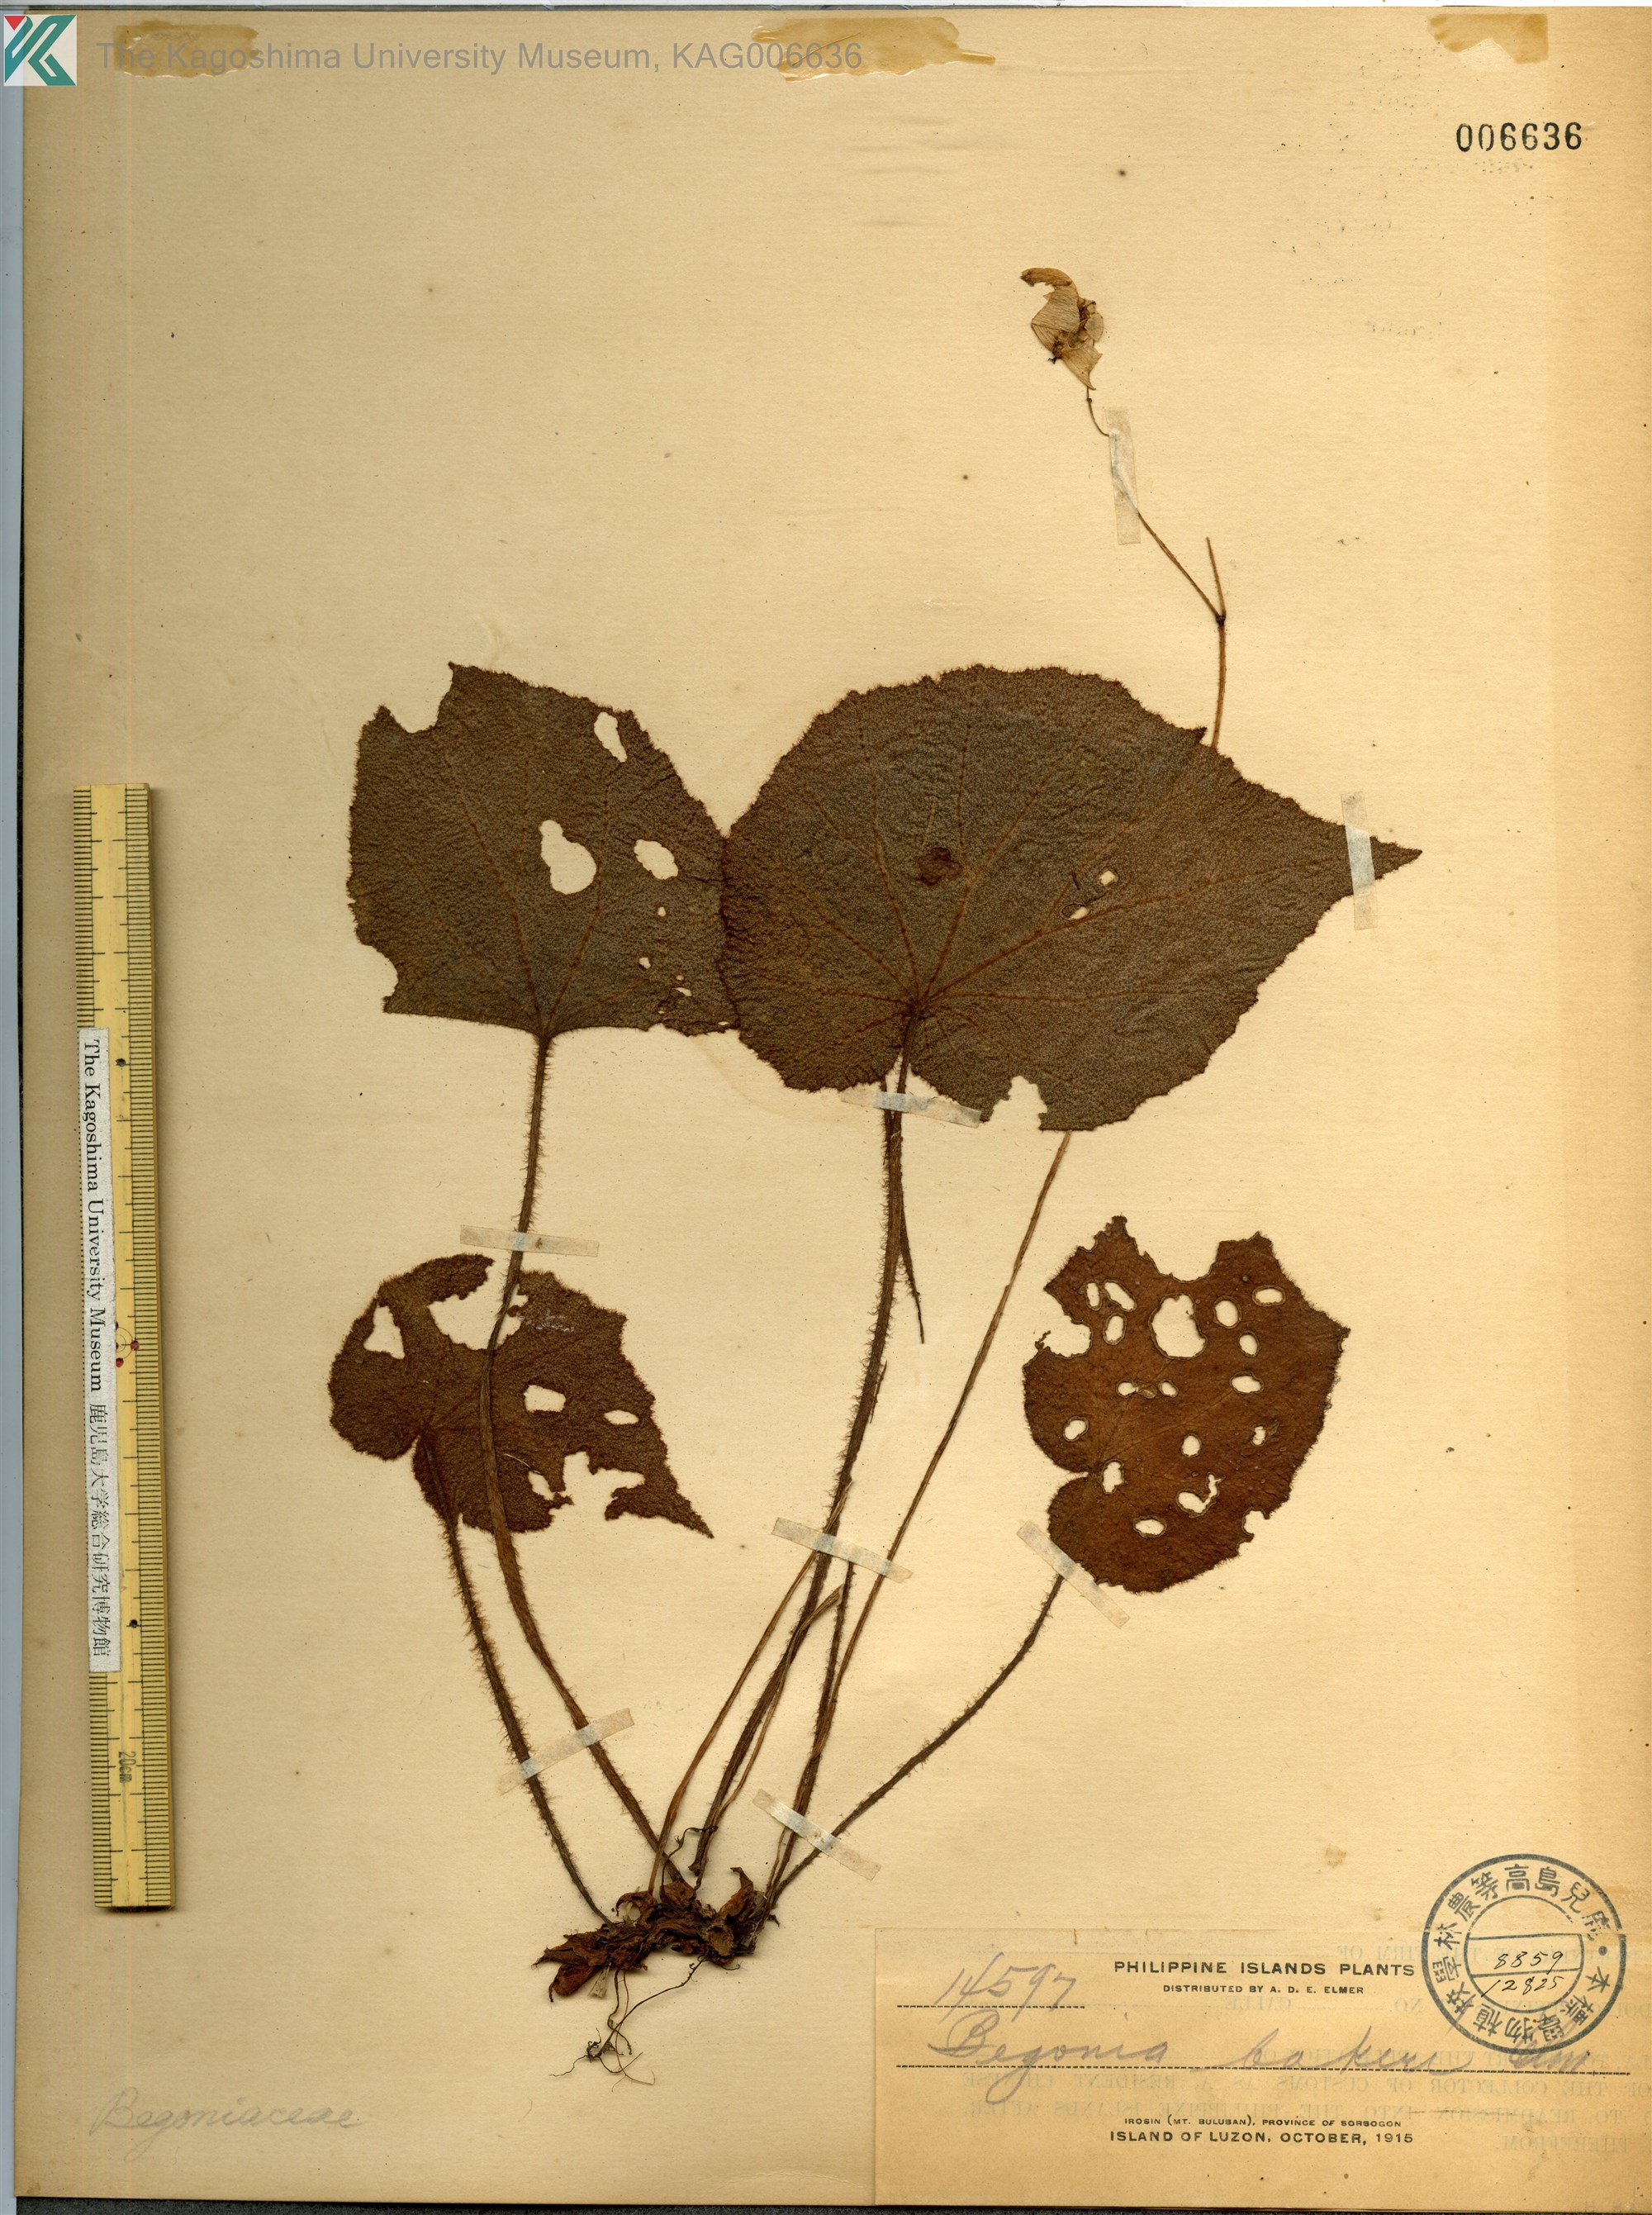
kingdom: Plantae
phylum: Tracheophyta
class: Magnoliopsida
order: Cucurbitales
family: Begoniaceae
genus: Begonia
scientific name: Begonia cardiocarpa
